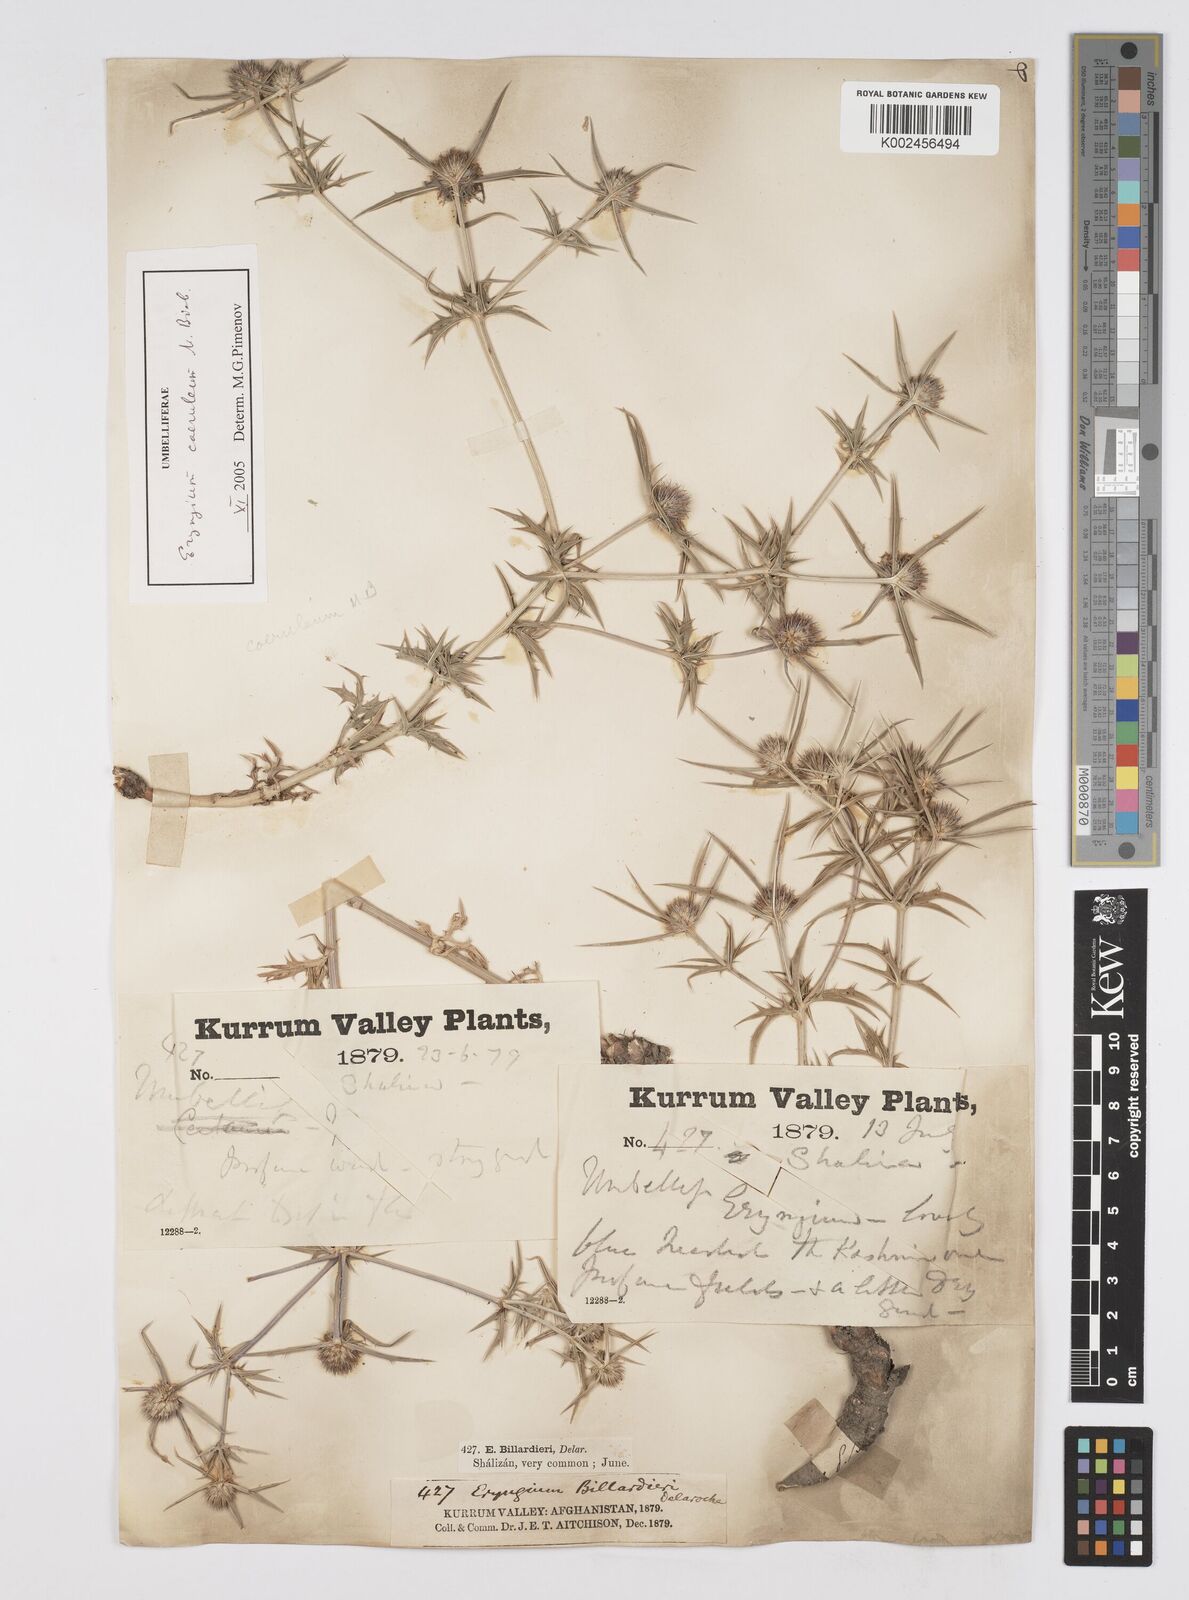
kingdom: Plantae
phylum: Tracheophyta
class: Magnoliopsida
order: Apiales
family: Apiaceae
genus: Eryngium
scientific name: Eryngium
